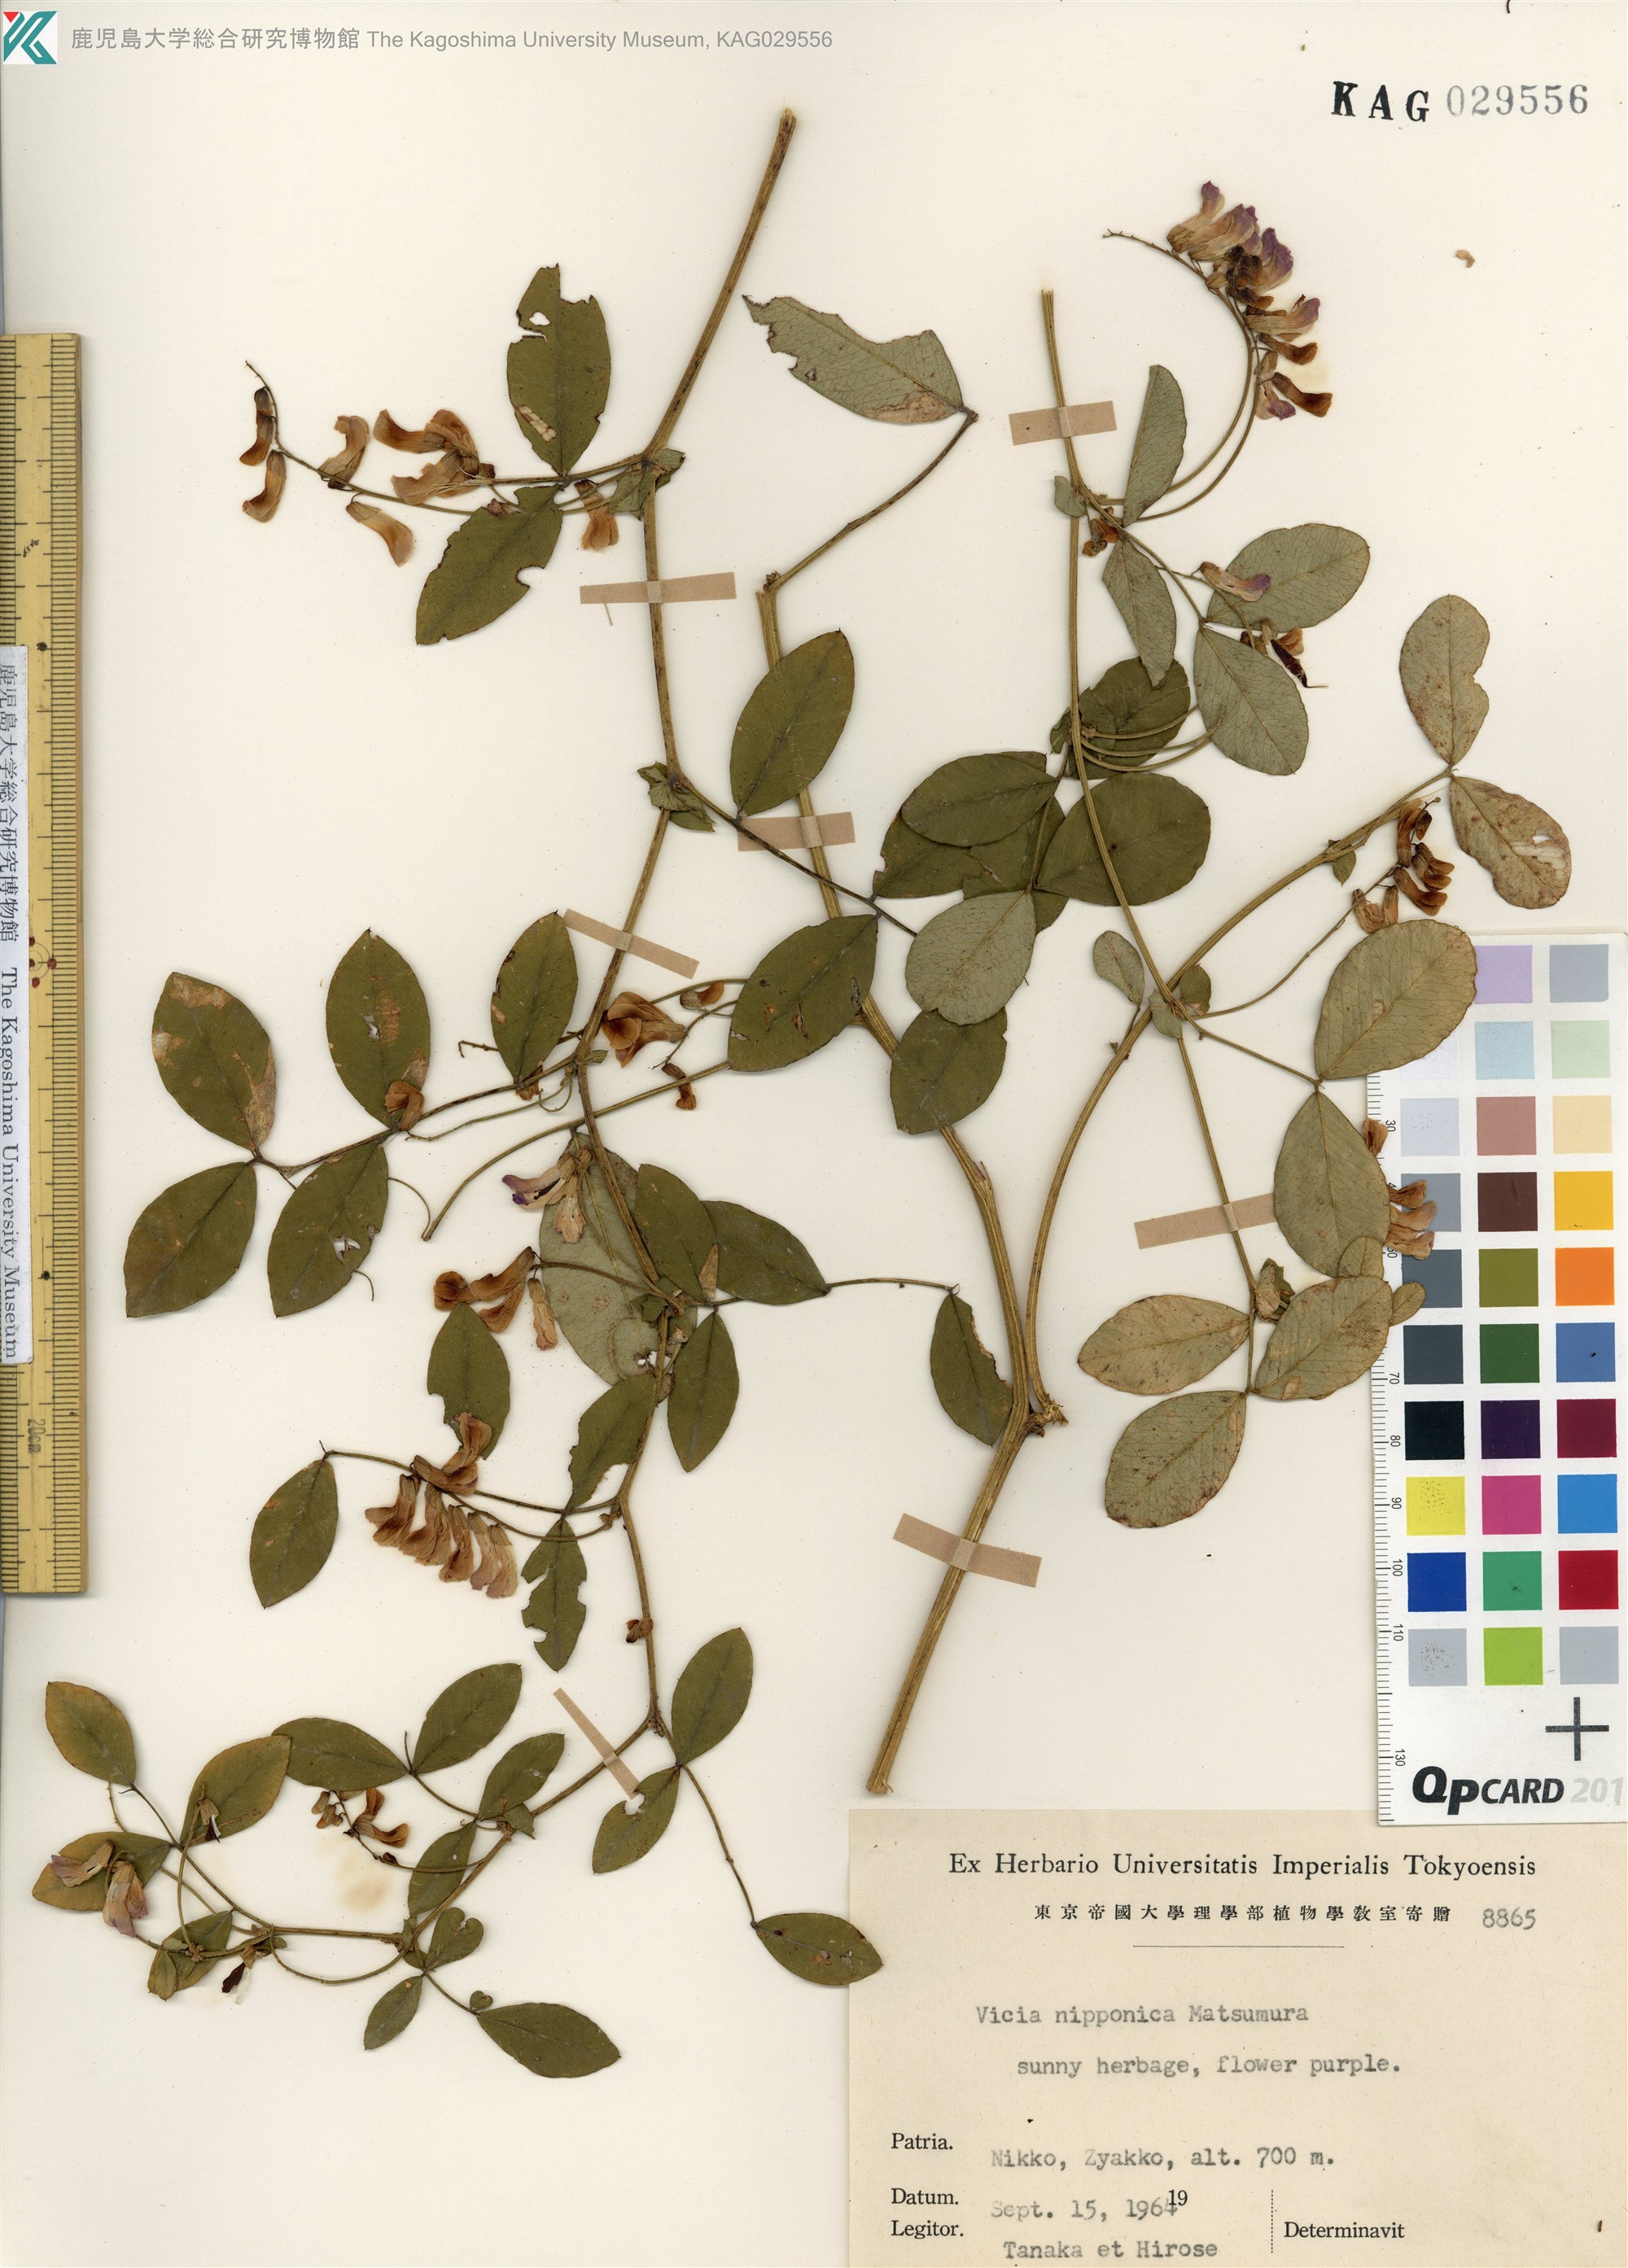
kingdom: Plantae
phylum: Tracheophyta
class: Magnoliopsida
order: Fabales
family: Fabaceae
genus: Vicia
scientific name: Vicia nipponica
